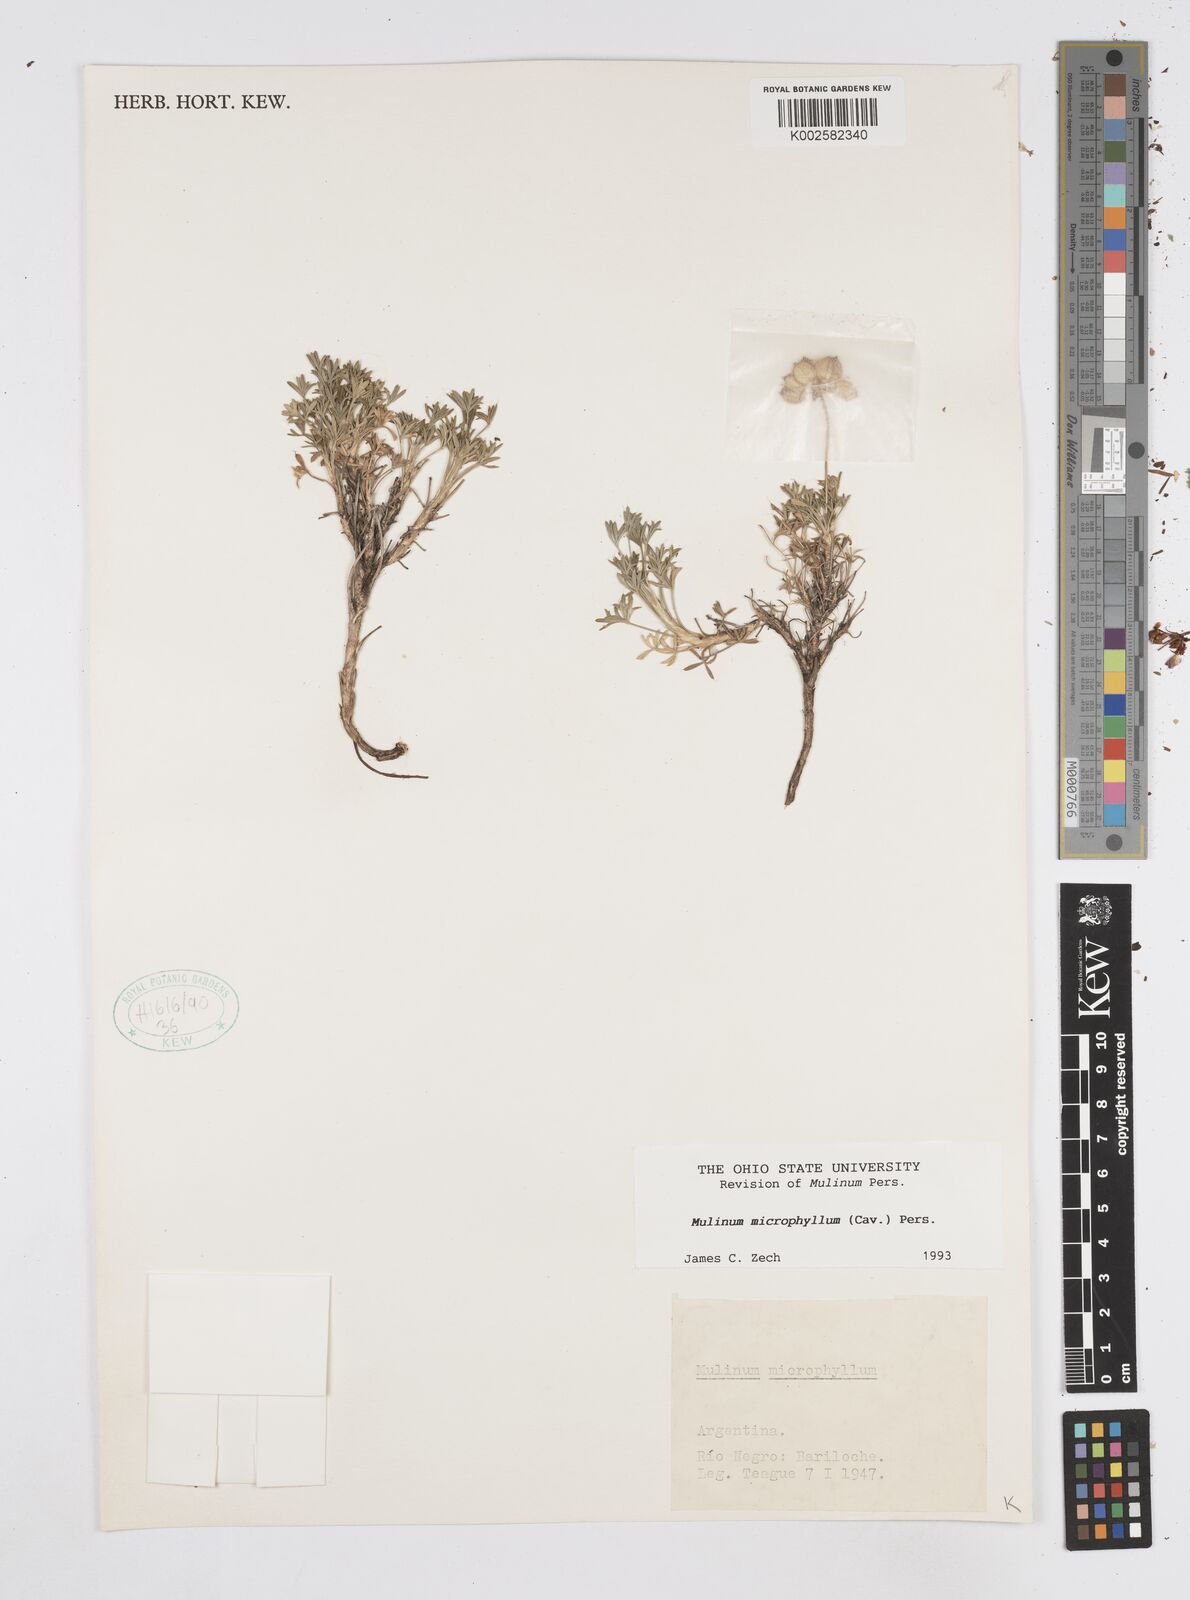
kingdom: Plantae
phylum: Tracheophyta
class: Magnoliopsida
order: Apiales
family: Apiaceae
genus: Azorella
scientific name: Azorella microphylla
